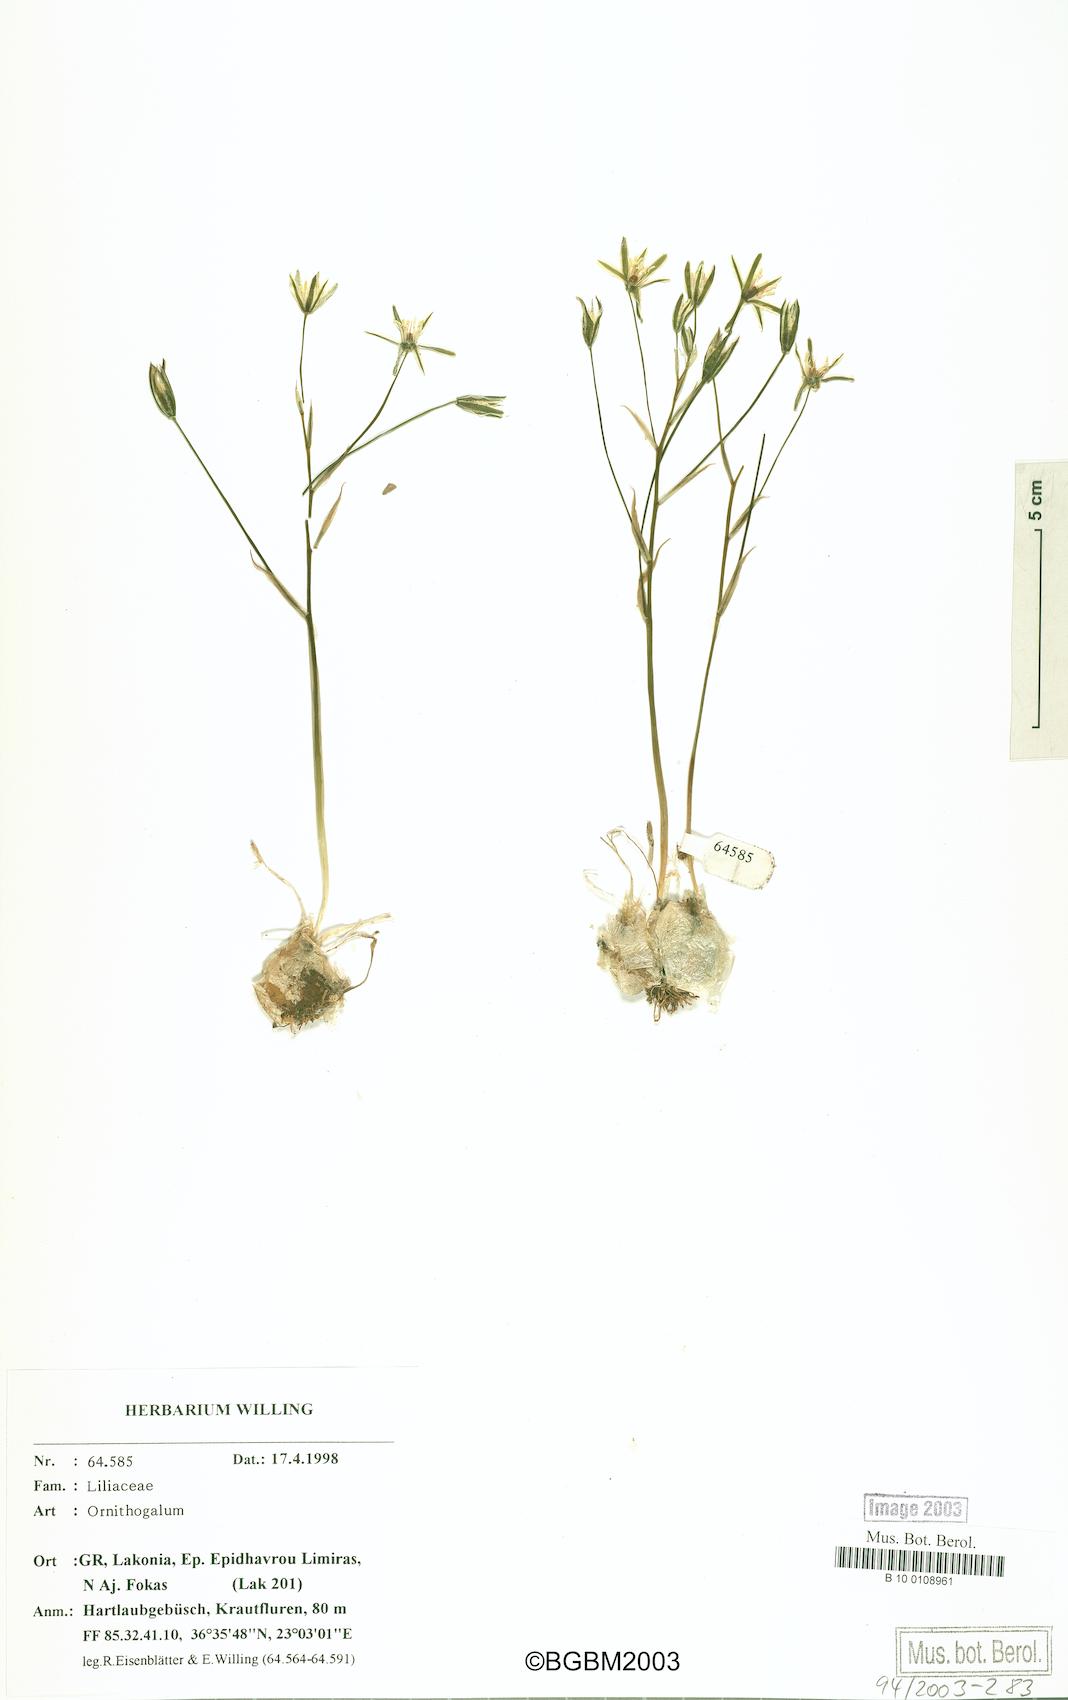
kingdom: Plantae
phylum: Tracheophyta
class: Liliopsida
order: Asparagales
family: Asparagaceae
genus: Ornithogalum
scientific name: Ornithogalum gussonei
